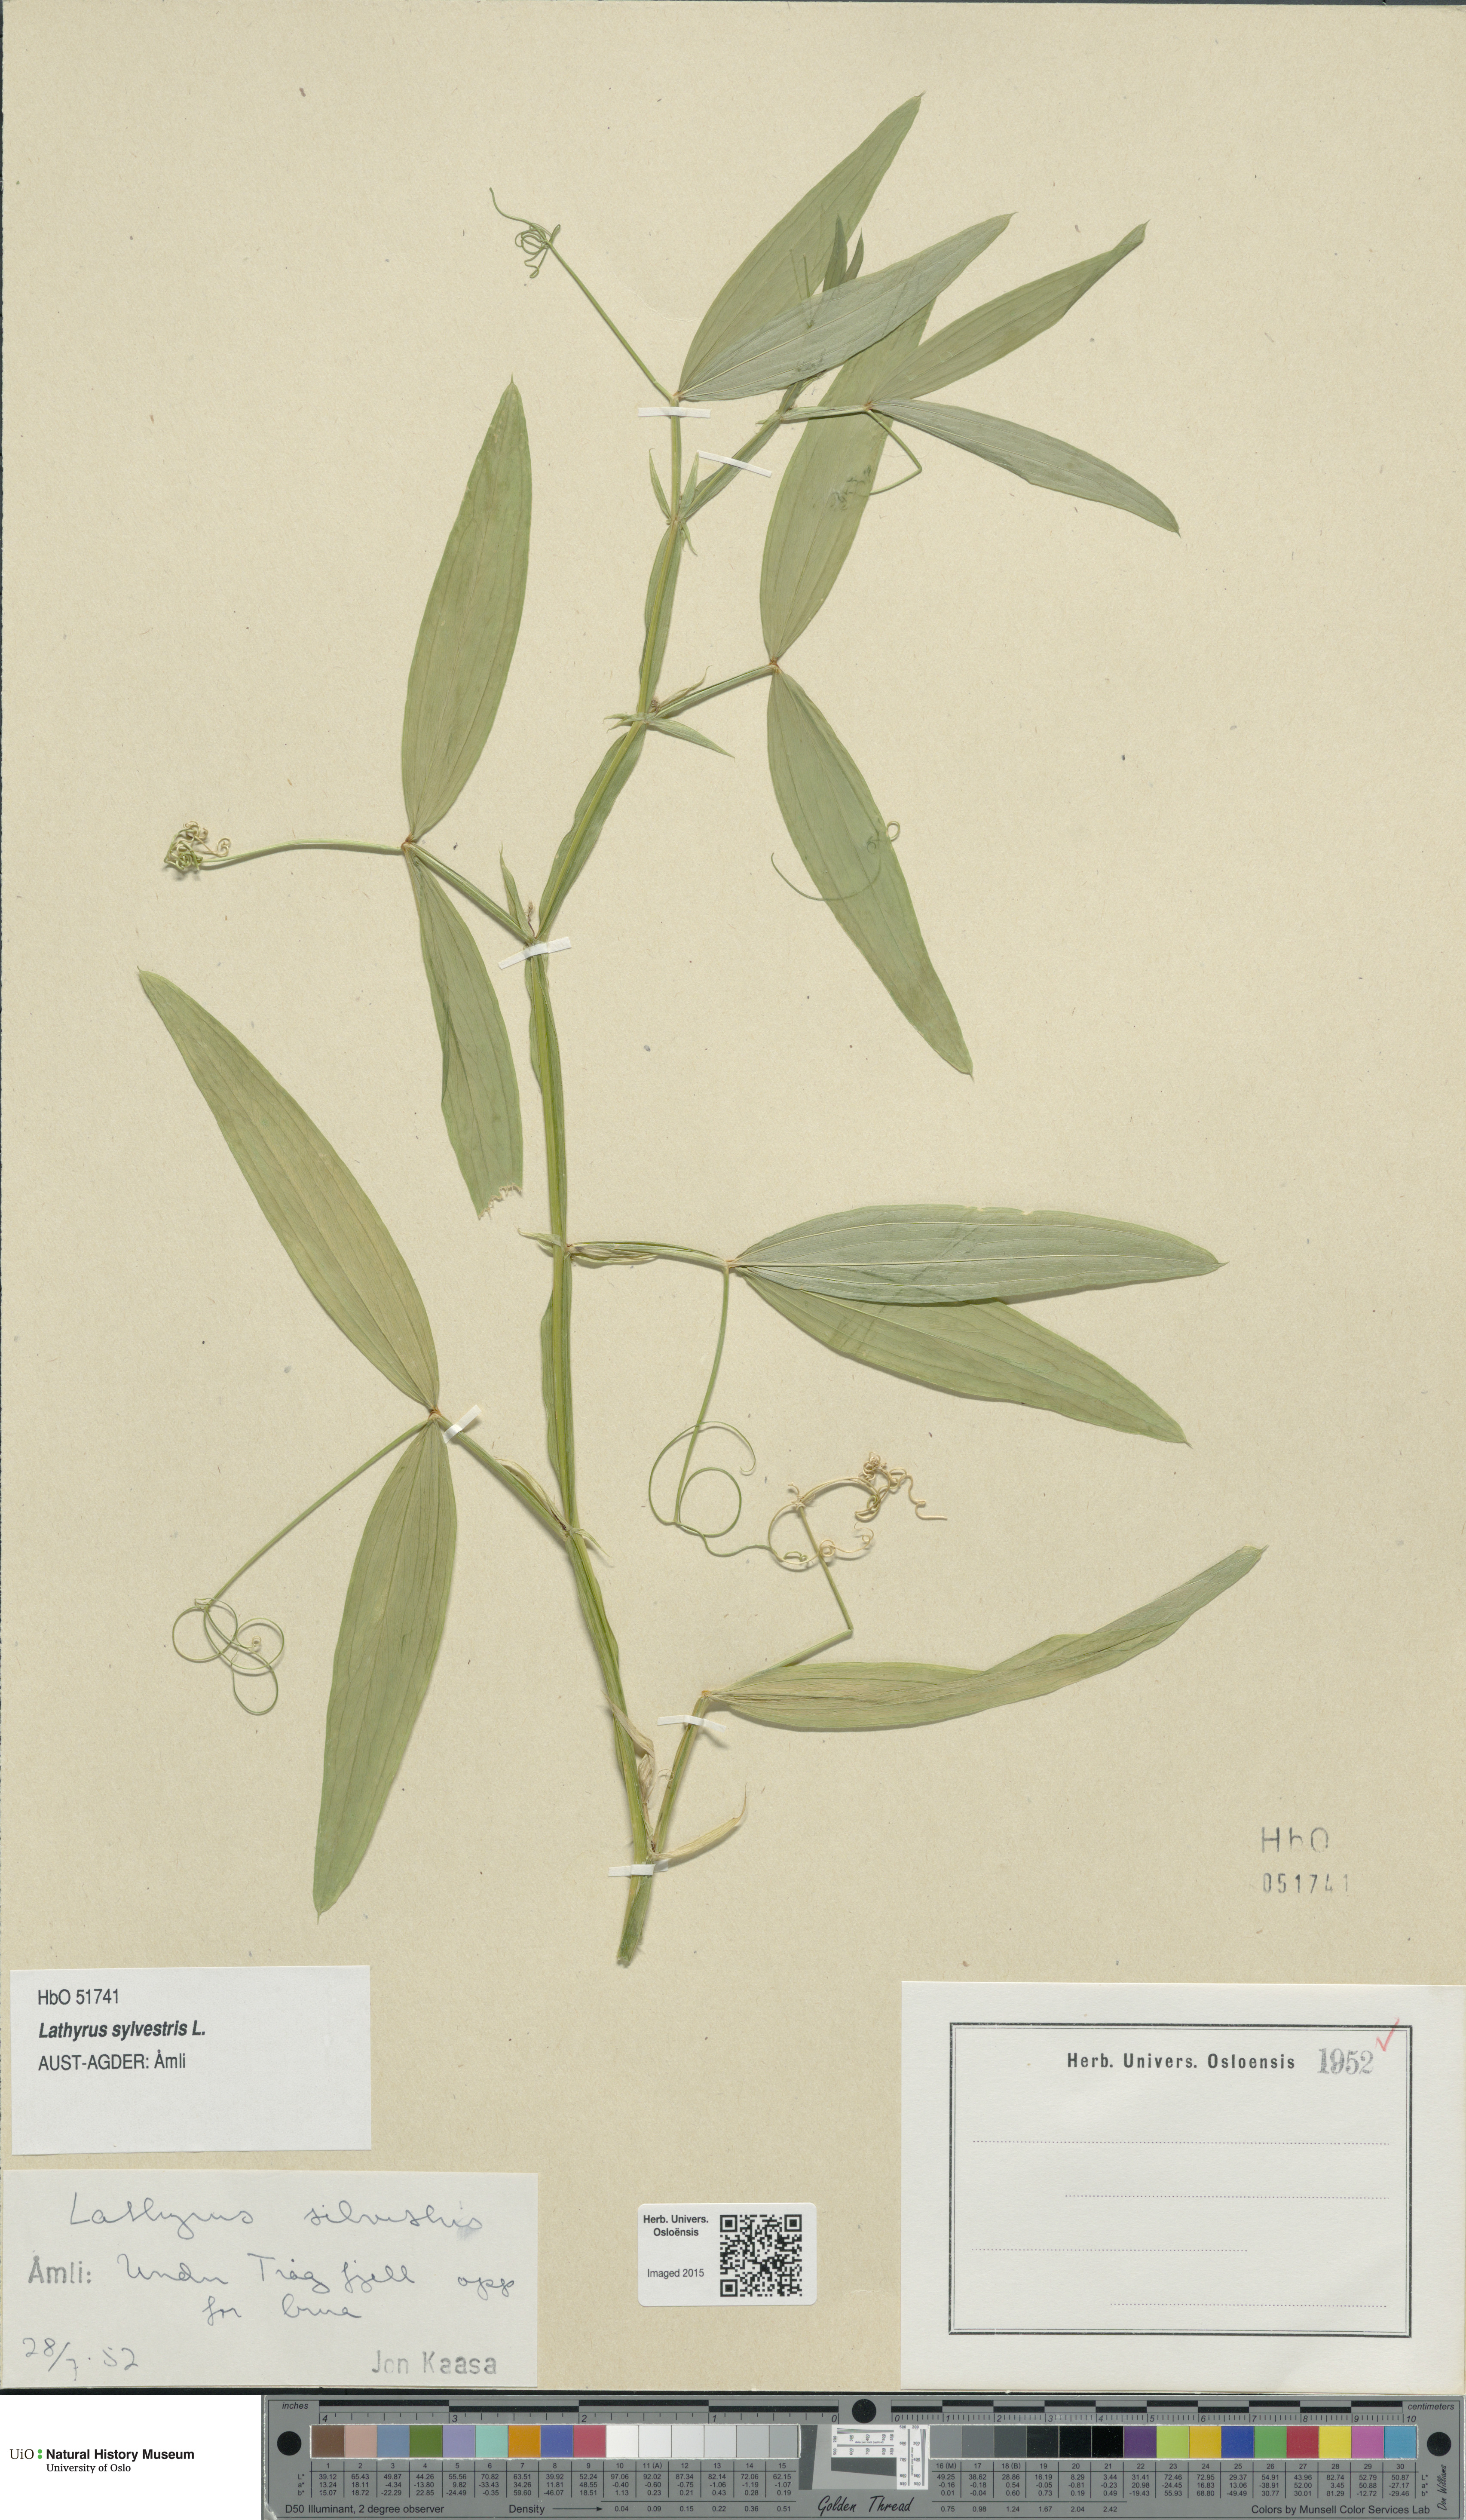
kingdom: Plantae
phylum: Tracheophyta
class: Magnoliopsida
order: Fabales
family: Fabaceae
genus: Lathyrus
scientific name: Lathyrus sylvestris
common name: Flat pea
